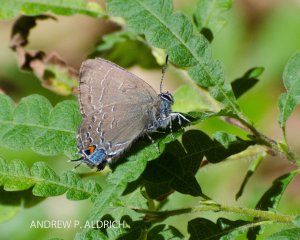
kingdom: Animalia
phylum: Arthropoda
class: Insecta
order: Lepidoptera
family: Lycaenidae
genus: Satyrium
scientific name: Satyrium calanus
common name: Banded Hairstreak
